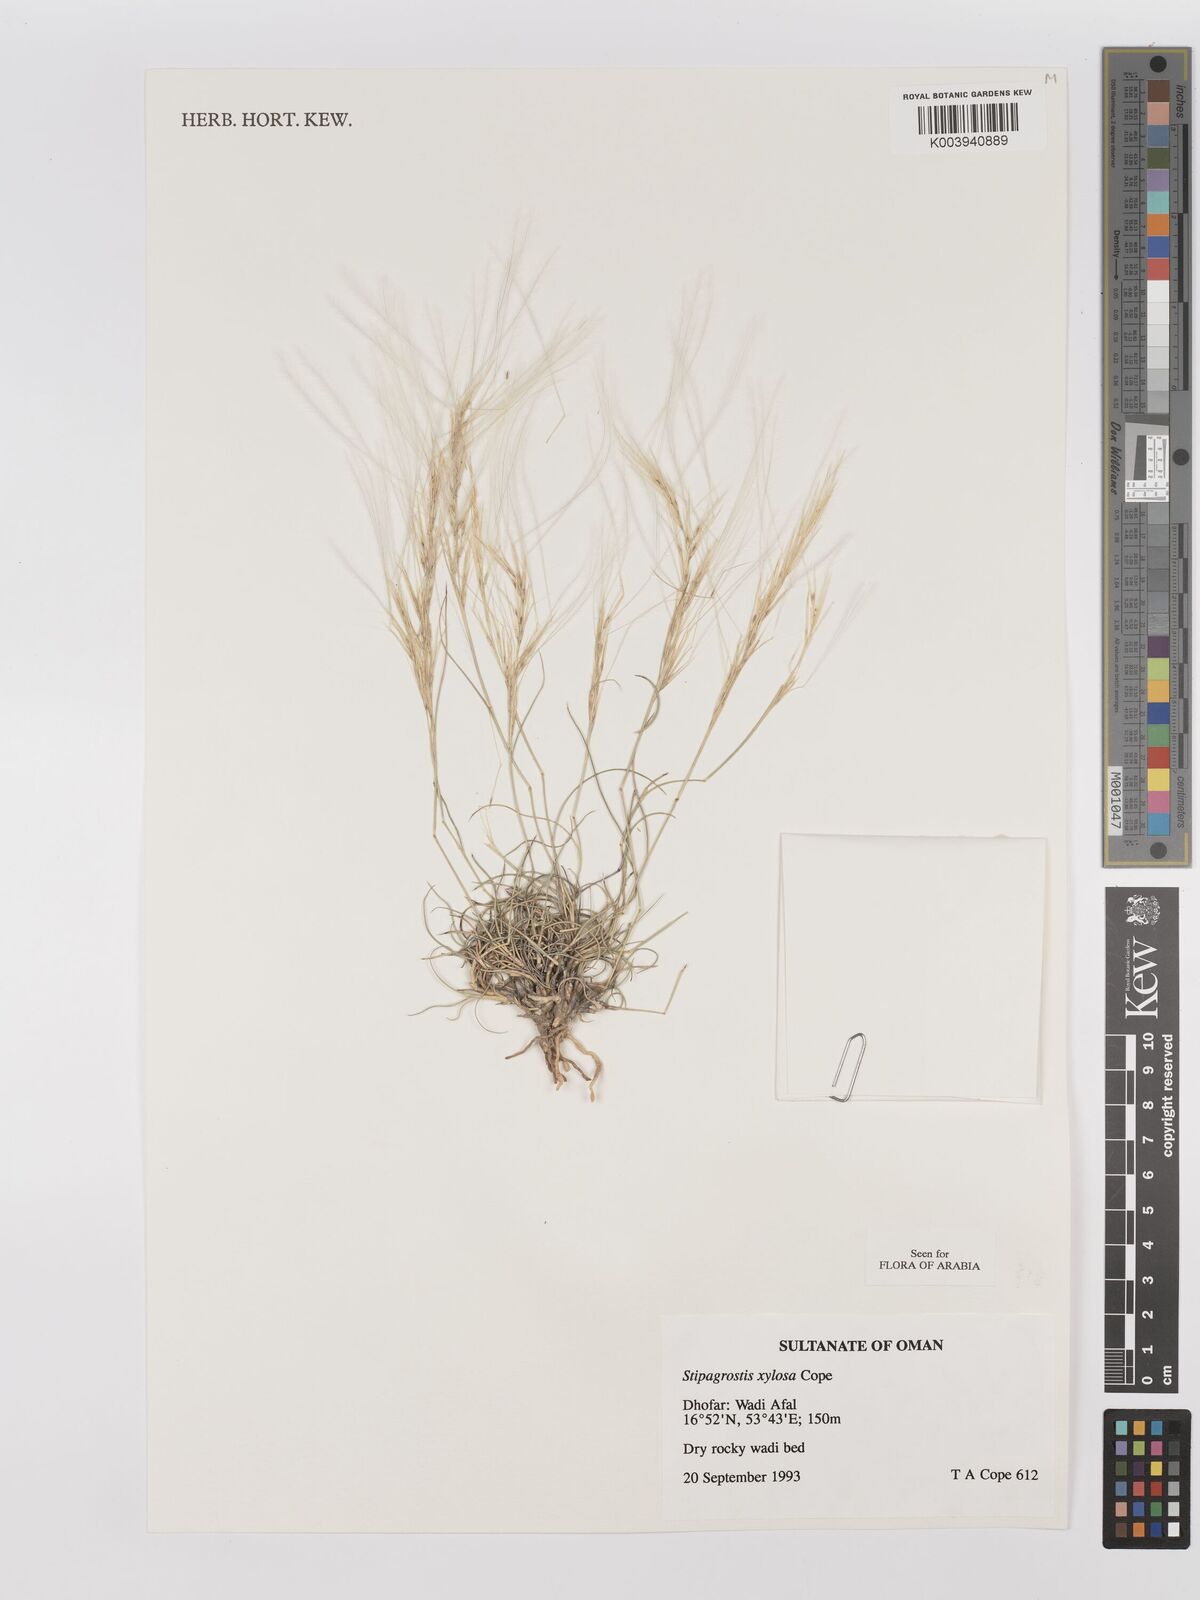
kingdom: Plantae
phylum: Tracheophyta
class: Liliopsida
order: Poales
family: Poaceae
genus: Stipagrostis
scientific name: Stipagrostis xylosa
